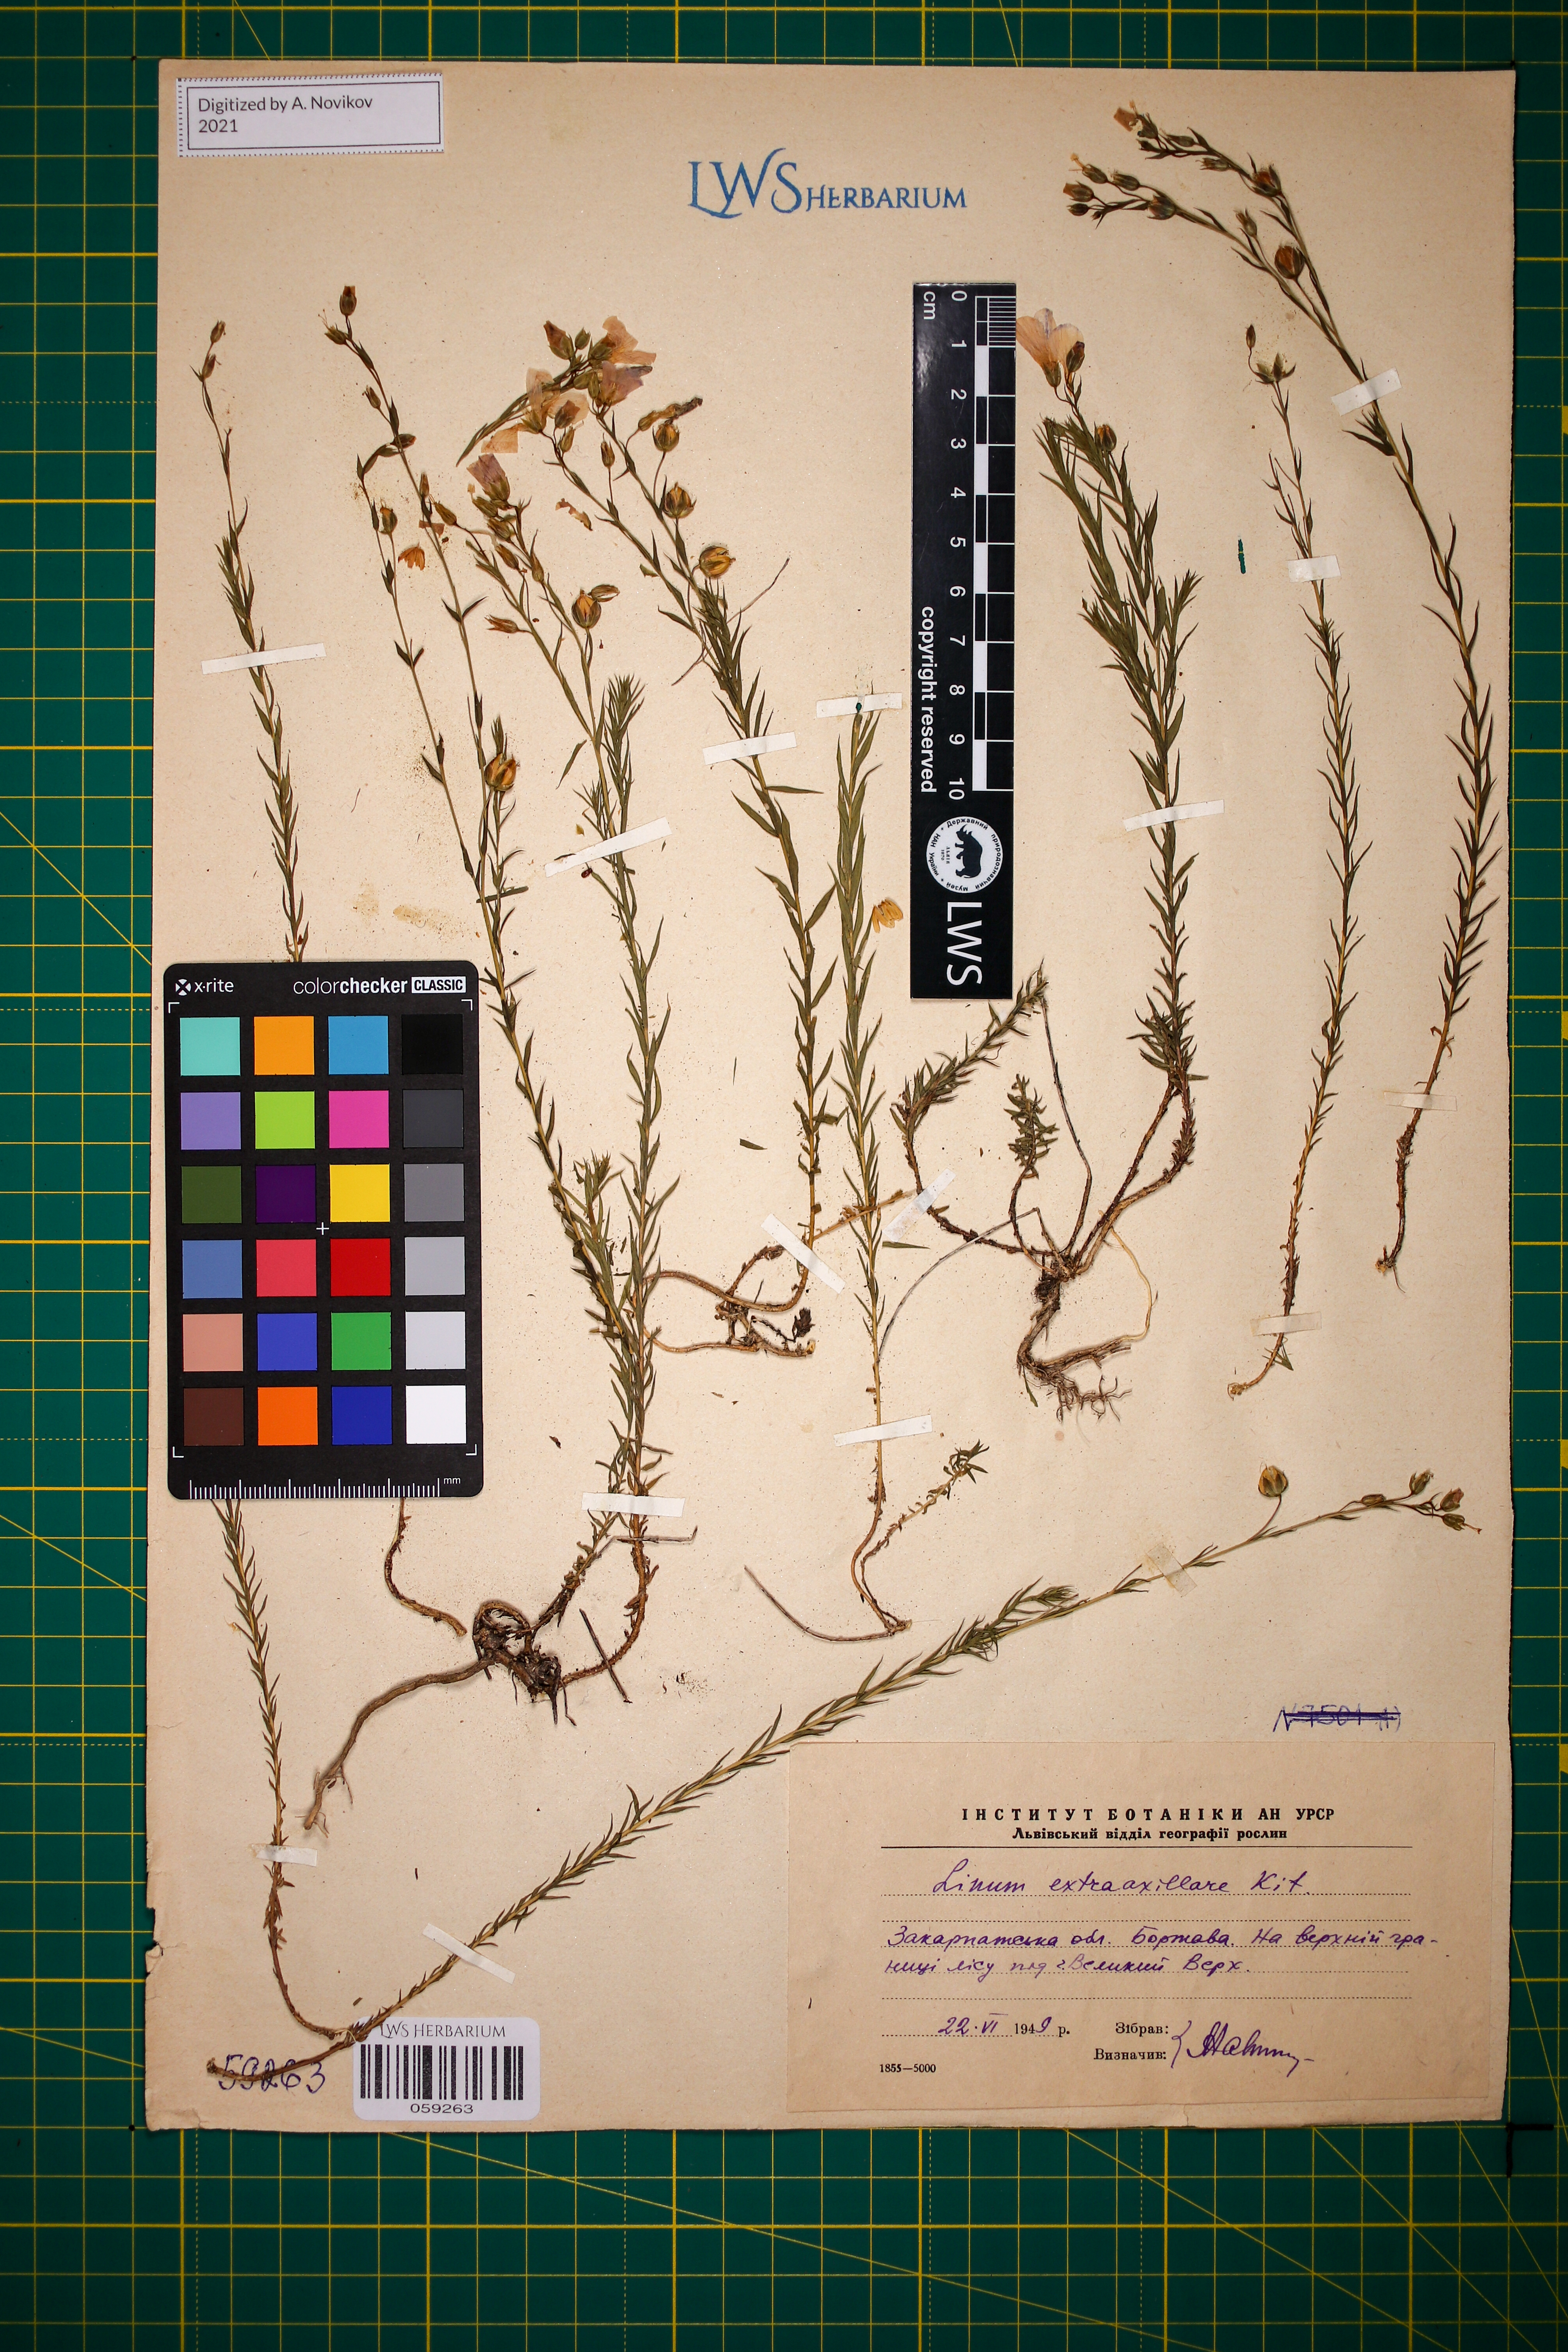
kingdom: Plantae
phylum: Tracheophyta
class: Magnoliopsida
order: Malpighiales
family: Linaceae
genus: Linum
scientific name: Linum perenne
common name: Blue flax
